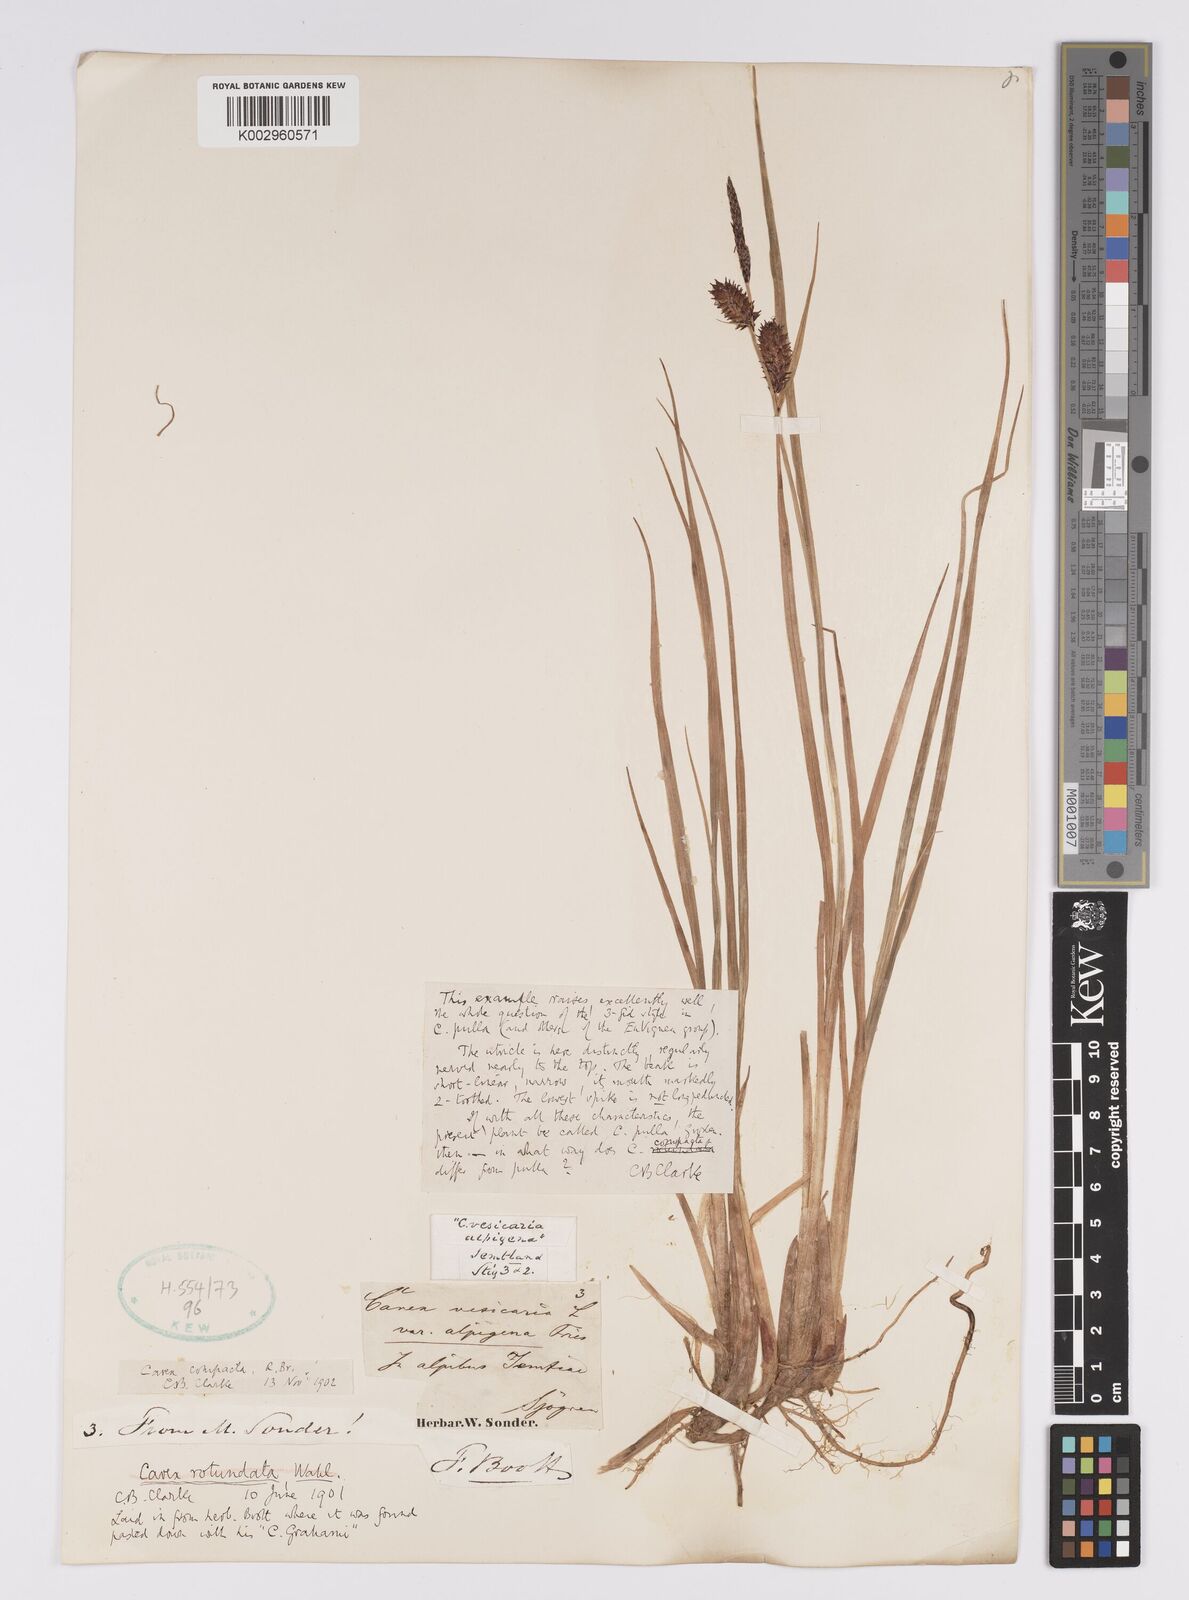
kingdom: Plantae
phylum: Tracheophyta
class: Liliopsida
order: Poales
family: Cyperaceae
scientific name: Cyperaceae
